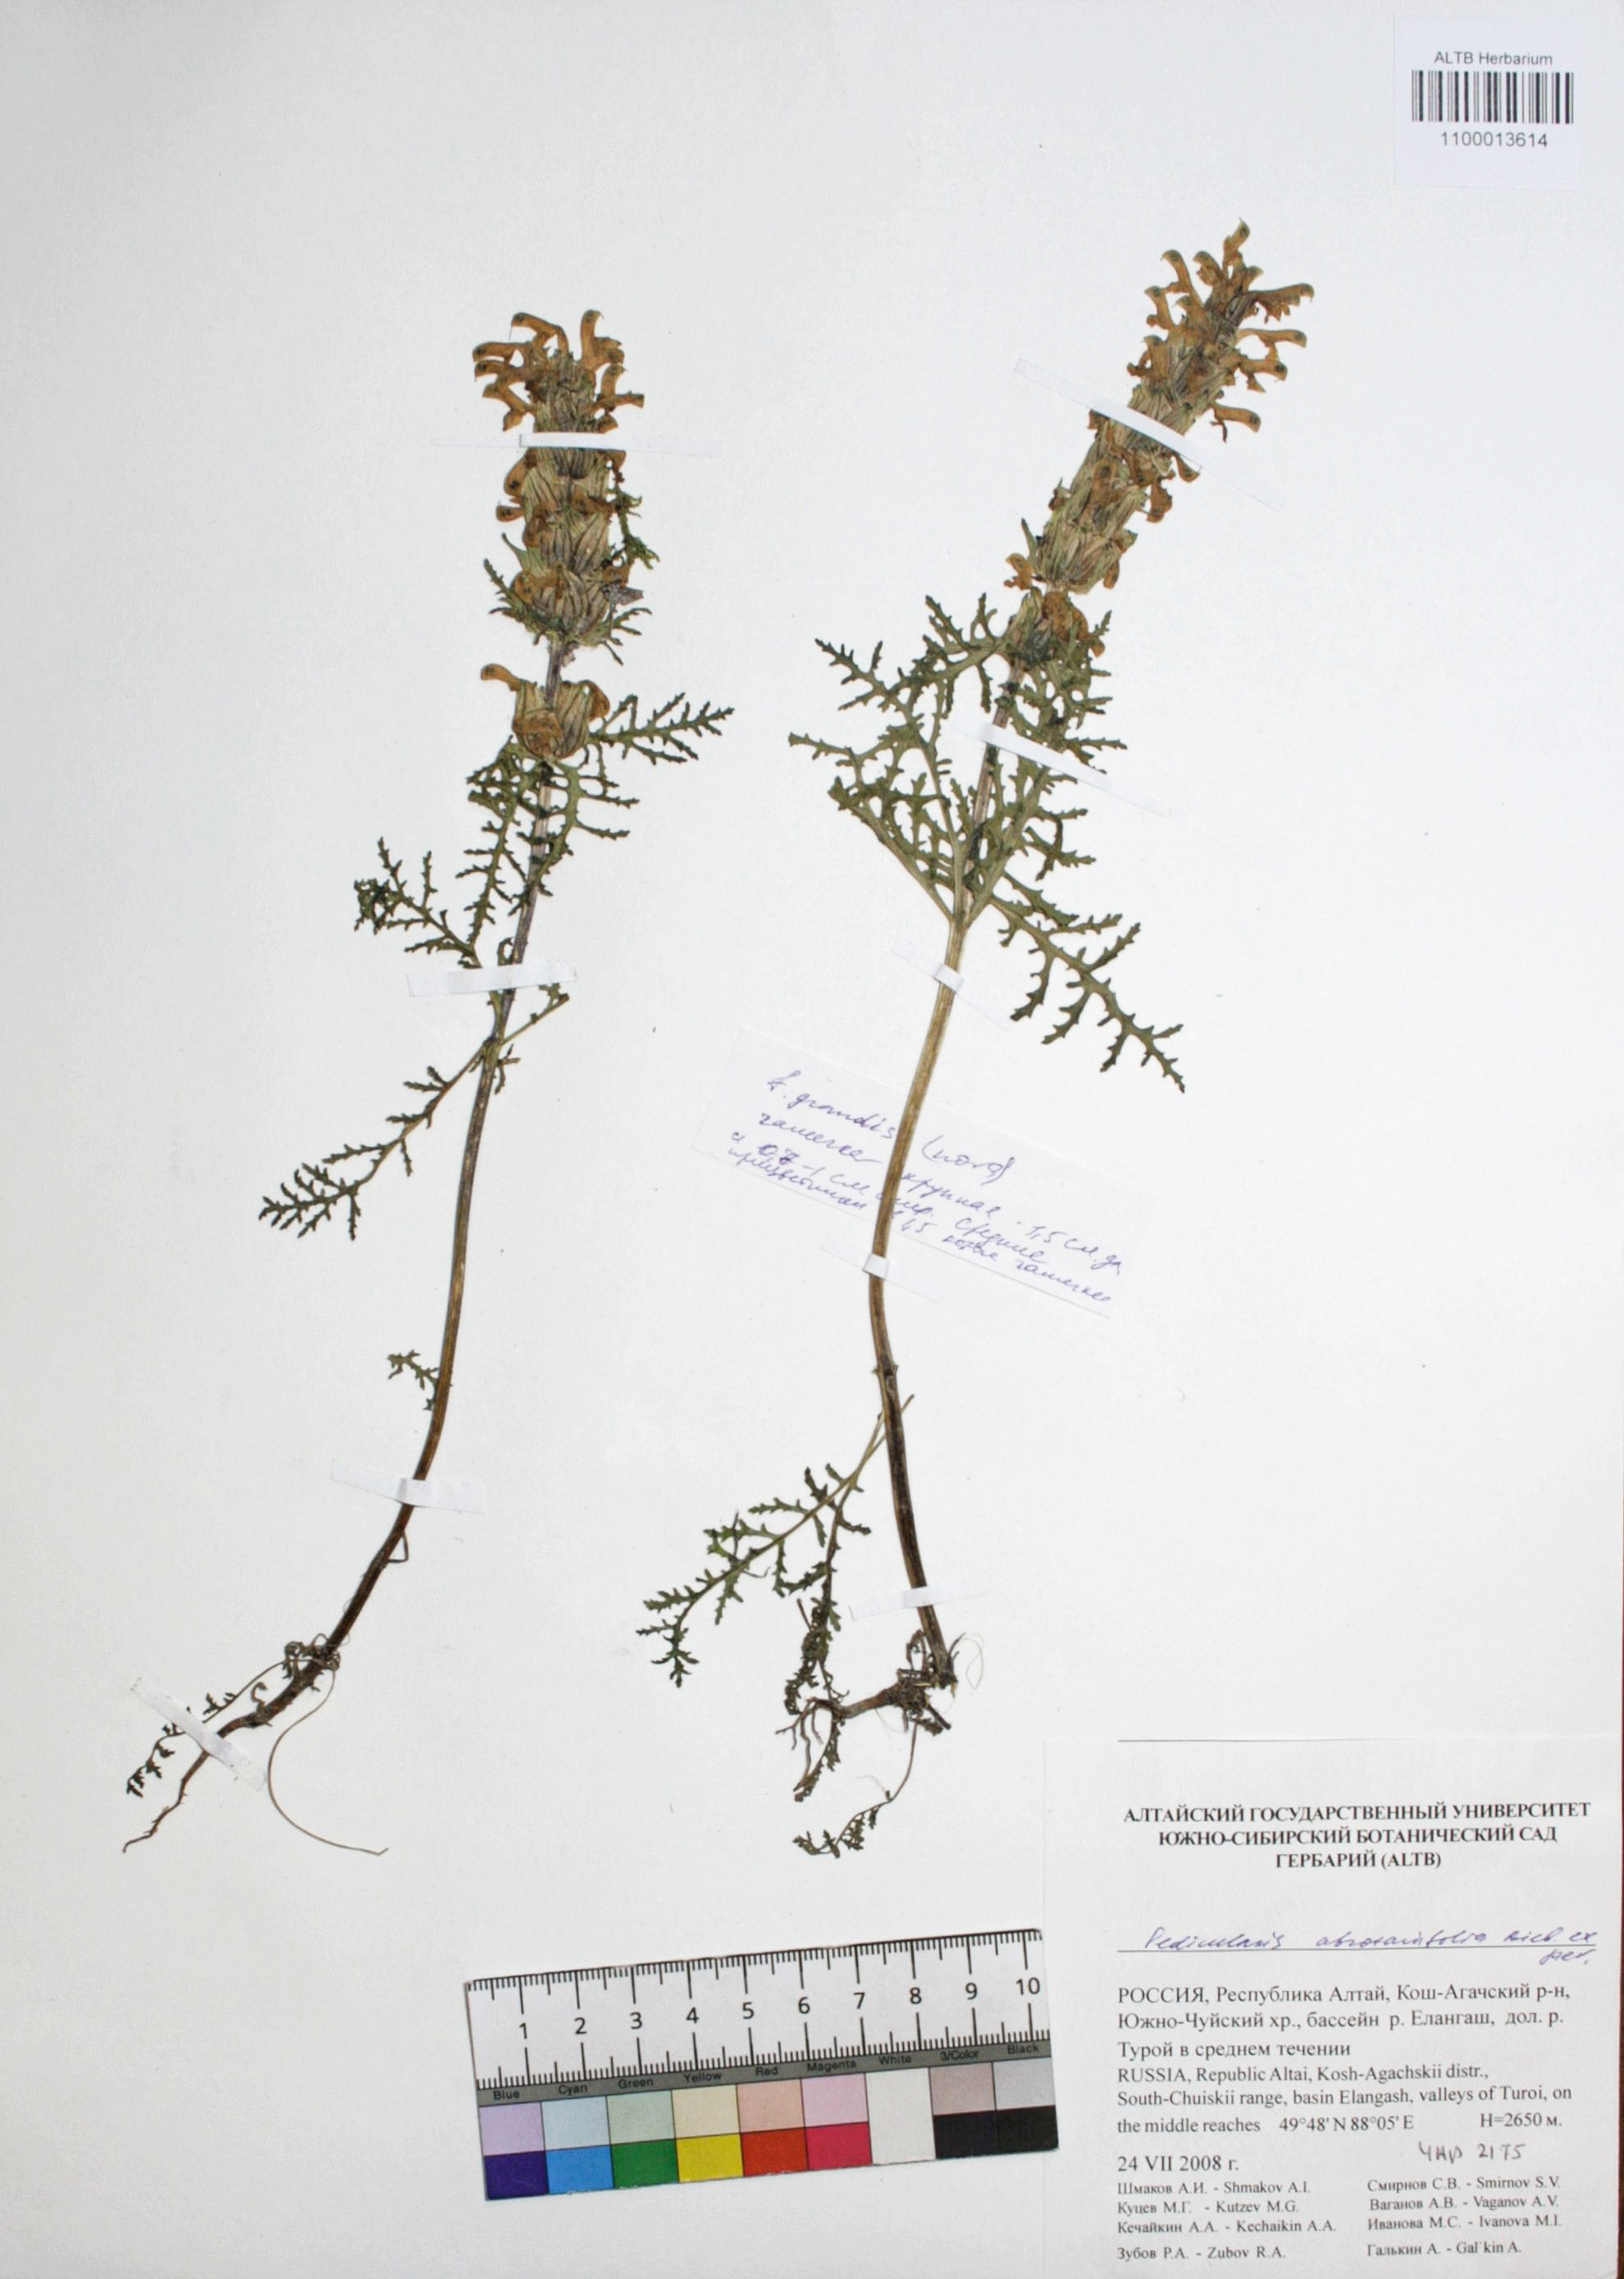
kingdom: Plantae
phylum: Tracheophyta
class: Magnoliopsida
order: Lamiales
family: Orobanchaceae
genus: Pedicularis
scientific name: Pedicularis abrotanifolia
